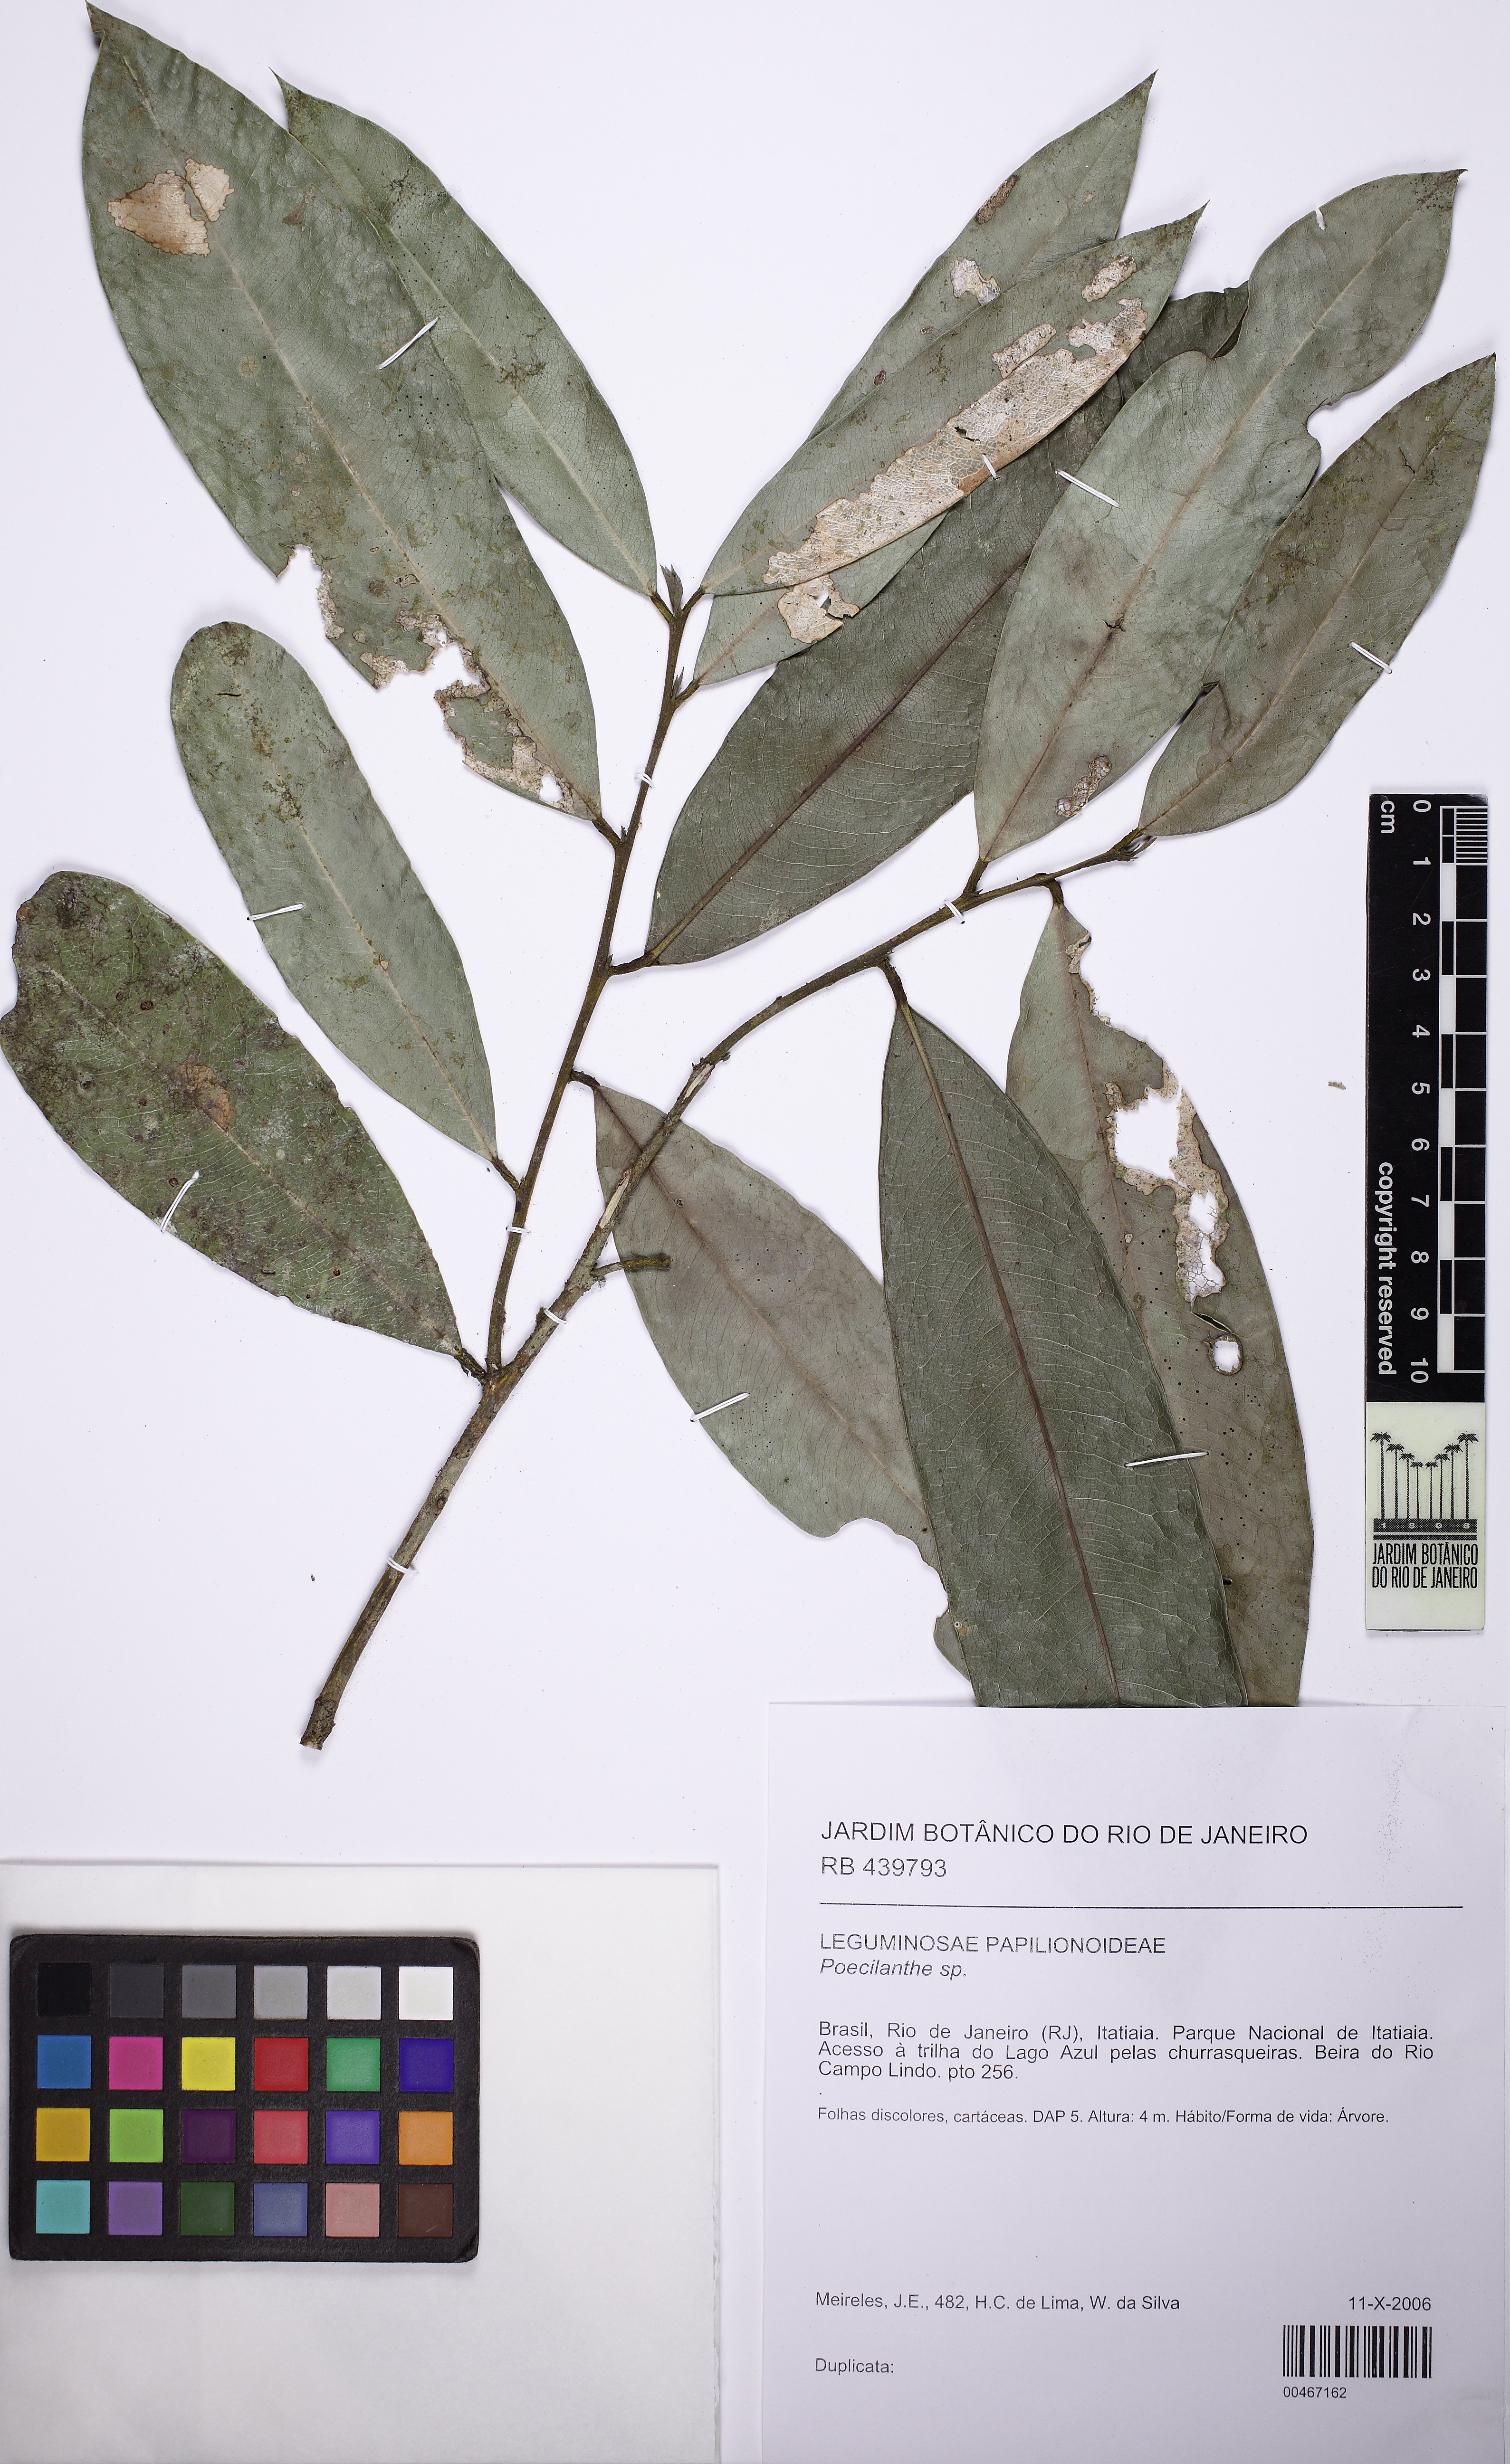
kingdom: Plantae
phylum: Tracheophyta
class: Magnoliopsida
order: Fabales
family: Fabaceae
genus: Poecilanthe
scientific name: Poecilanthe fluminensis
